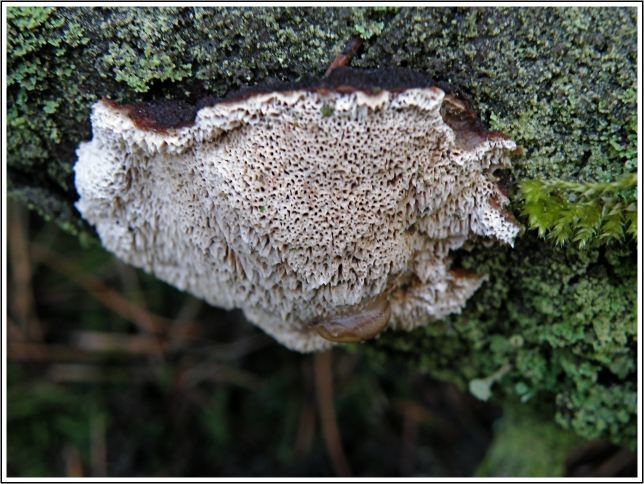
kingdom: Fungi
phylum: Basidiomycota
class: Agaricomycetes
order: Polyporales
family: Ischnodermataceae
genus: Ischnoderma
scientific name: Ischnoderma benzoinum
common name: gran-tjæreporesvamp
